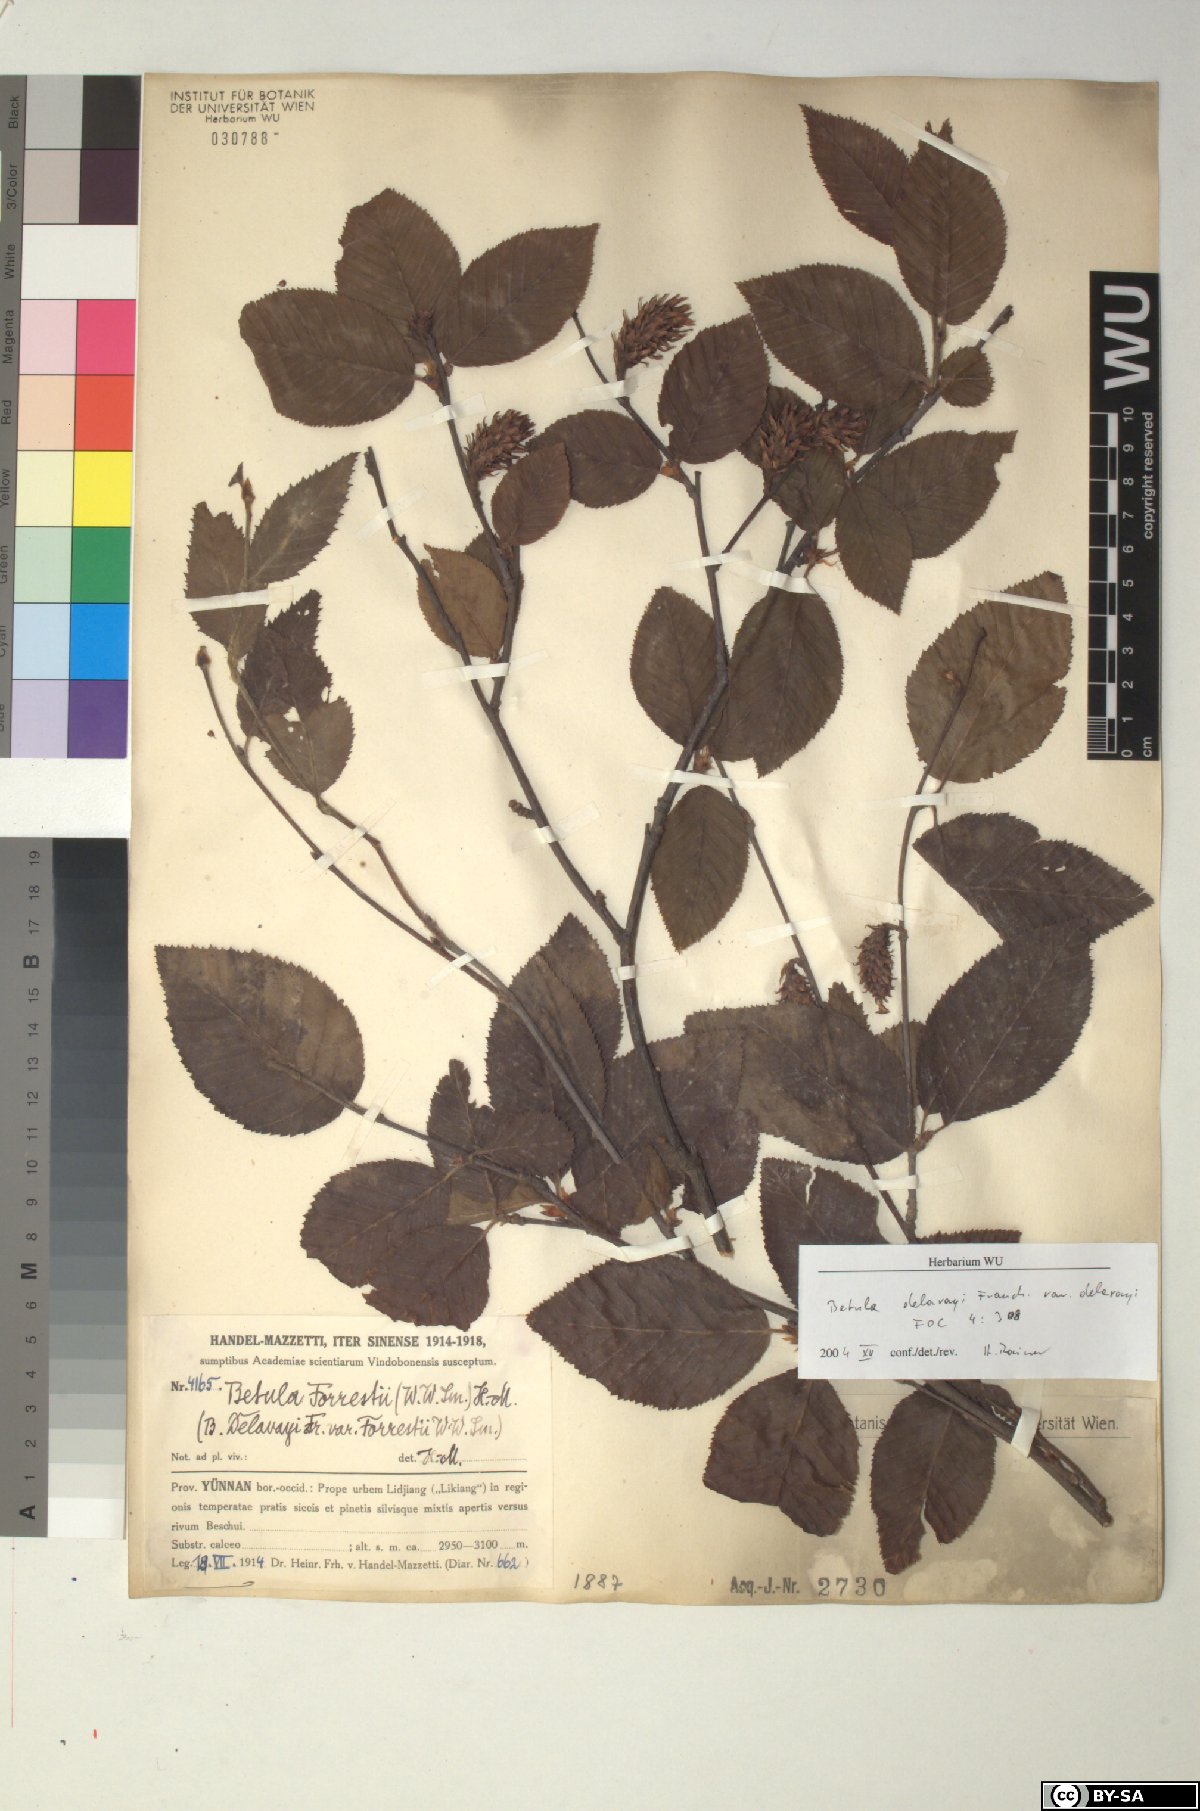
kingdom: Plantae
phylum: Tracheophyta
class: Magnoliopsida
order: Fagales
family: Betulaceae
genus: Betula
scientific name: Betula delavayi
